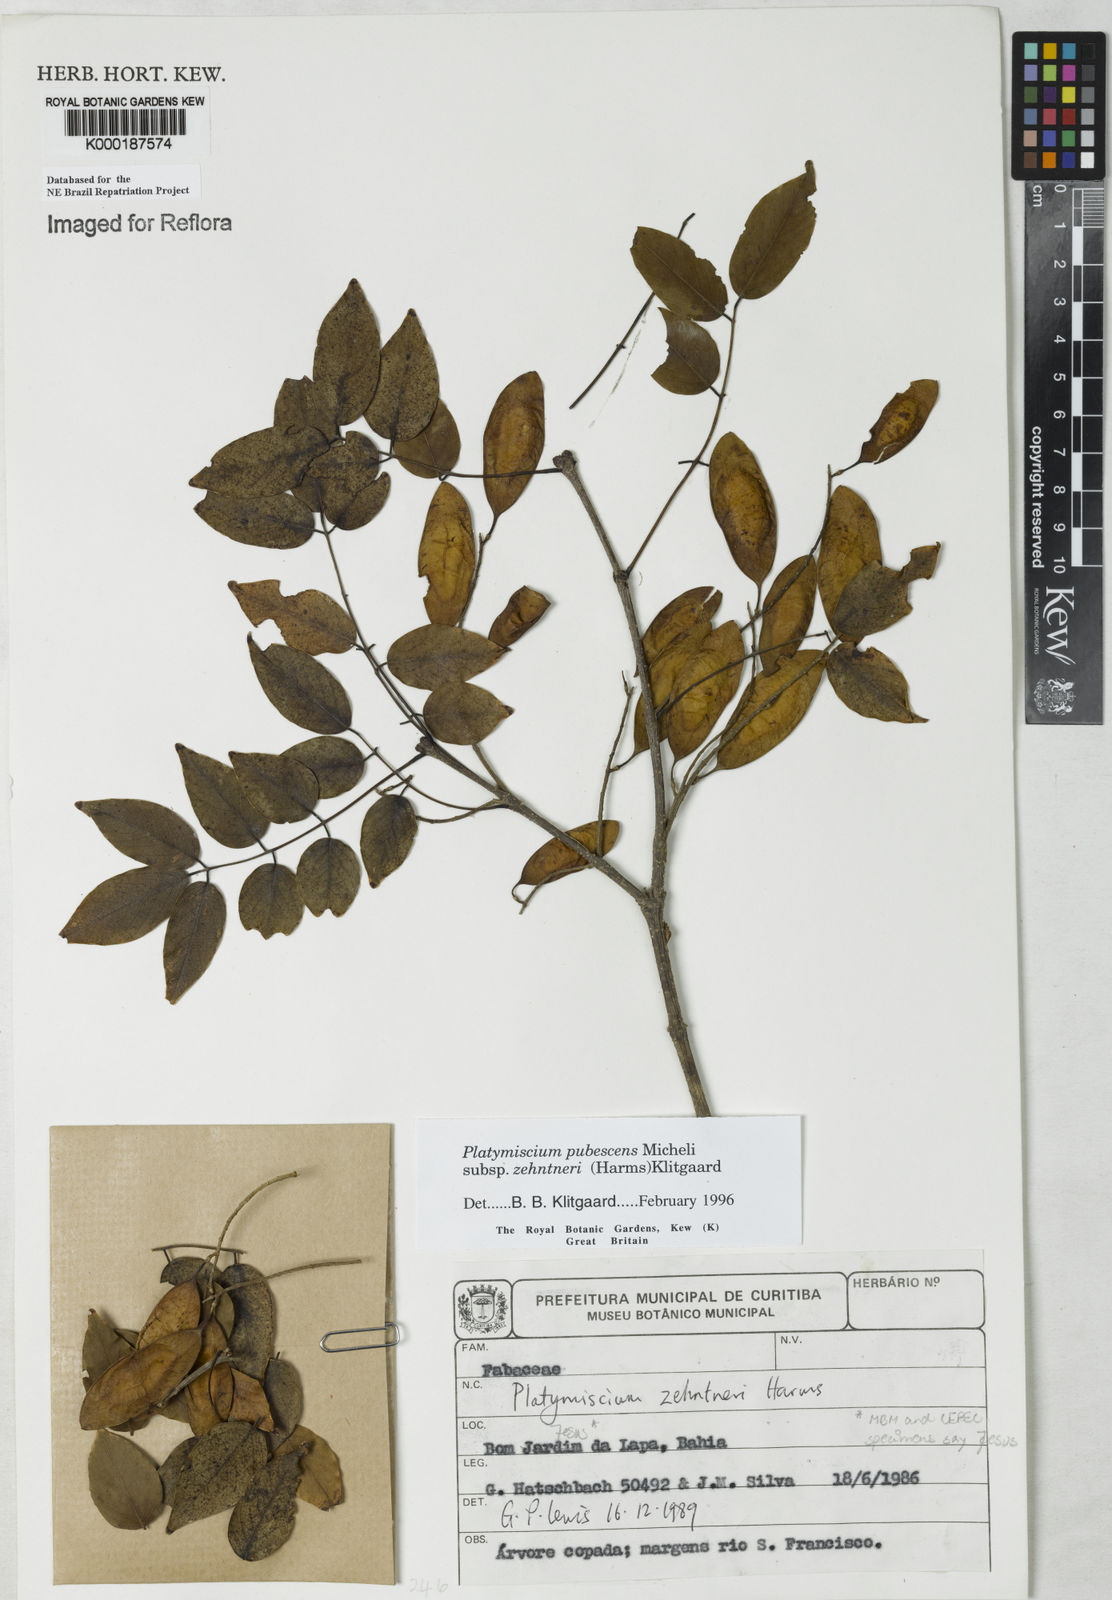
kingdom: Plantae
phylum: Tracheophyta
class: Magnoliopsida
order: Fabales
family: Fabaceae
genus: Platymiscium
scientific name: Platymiscium pubescens
